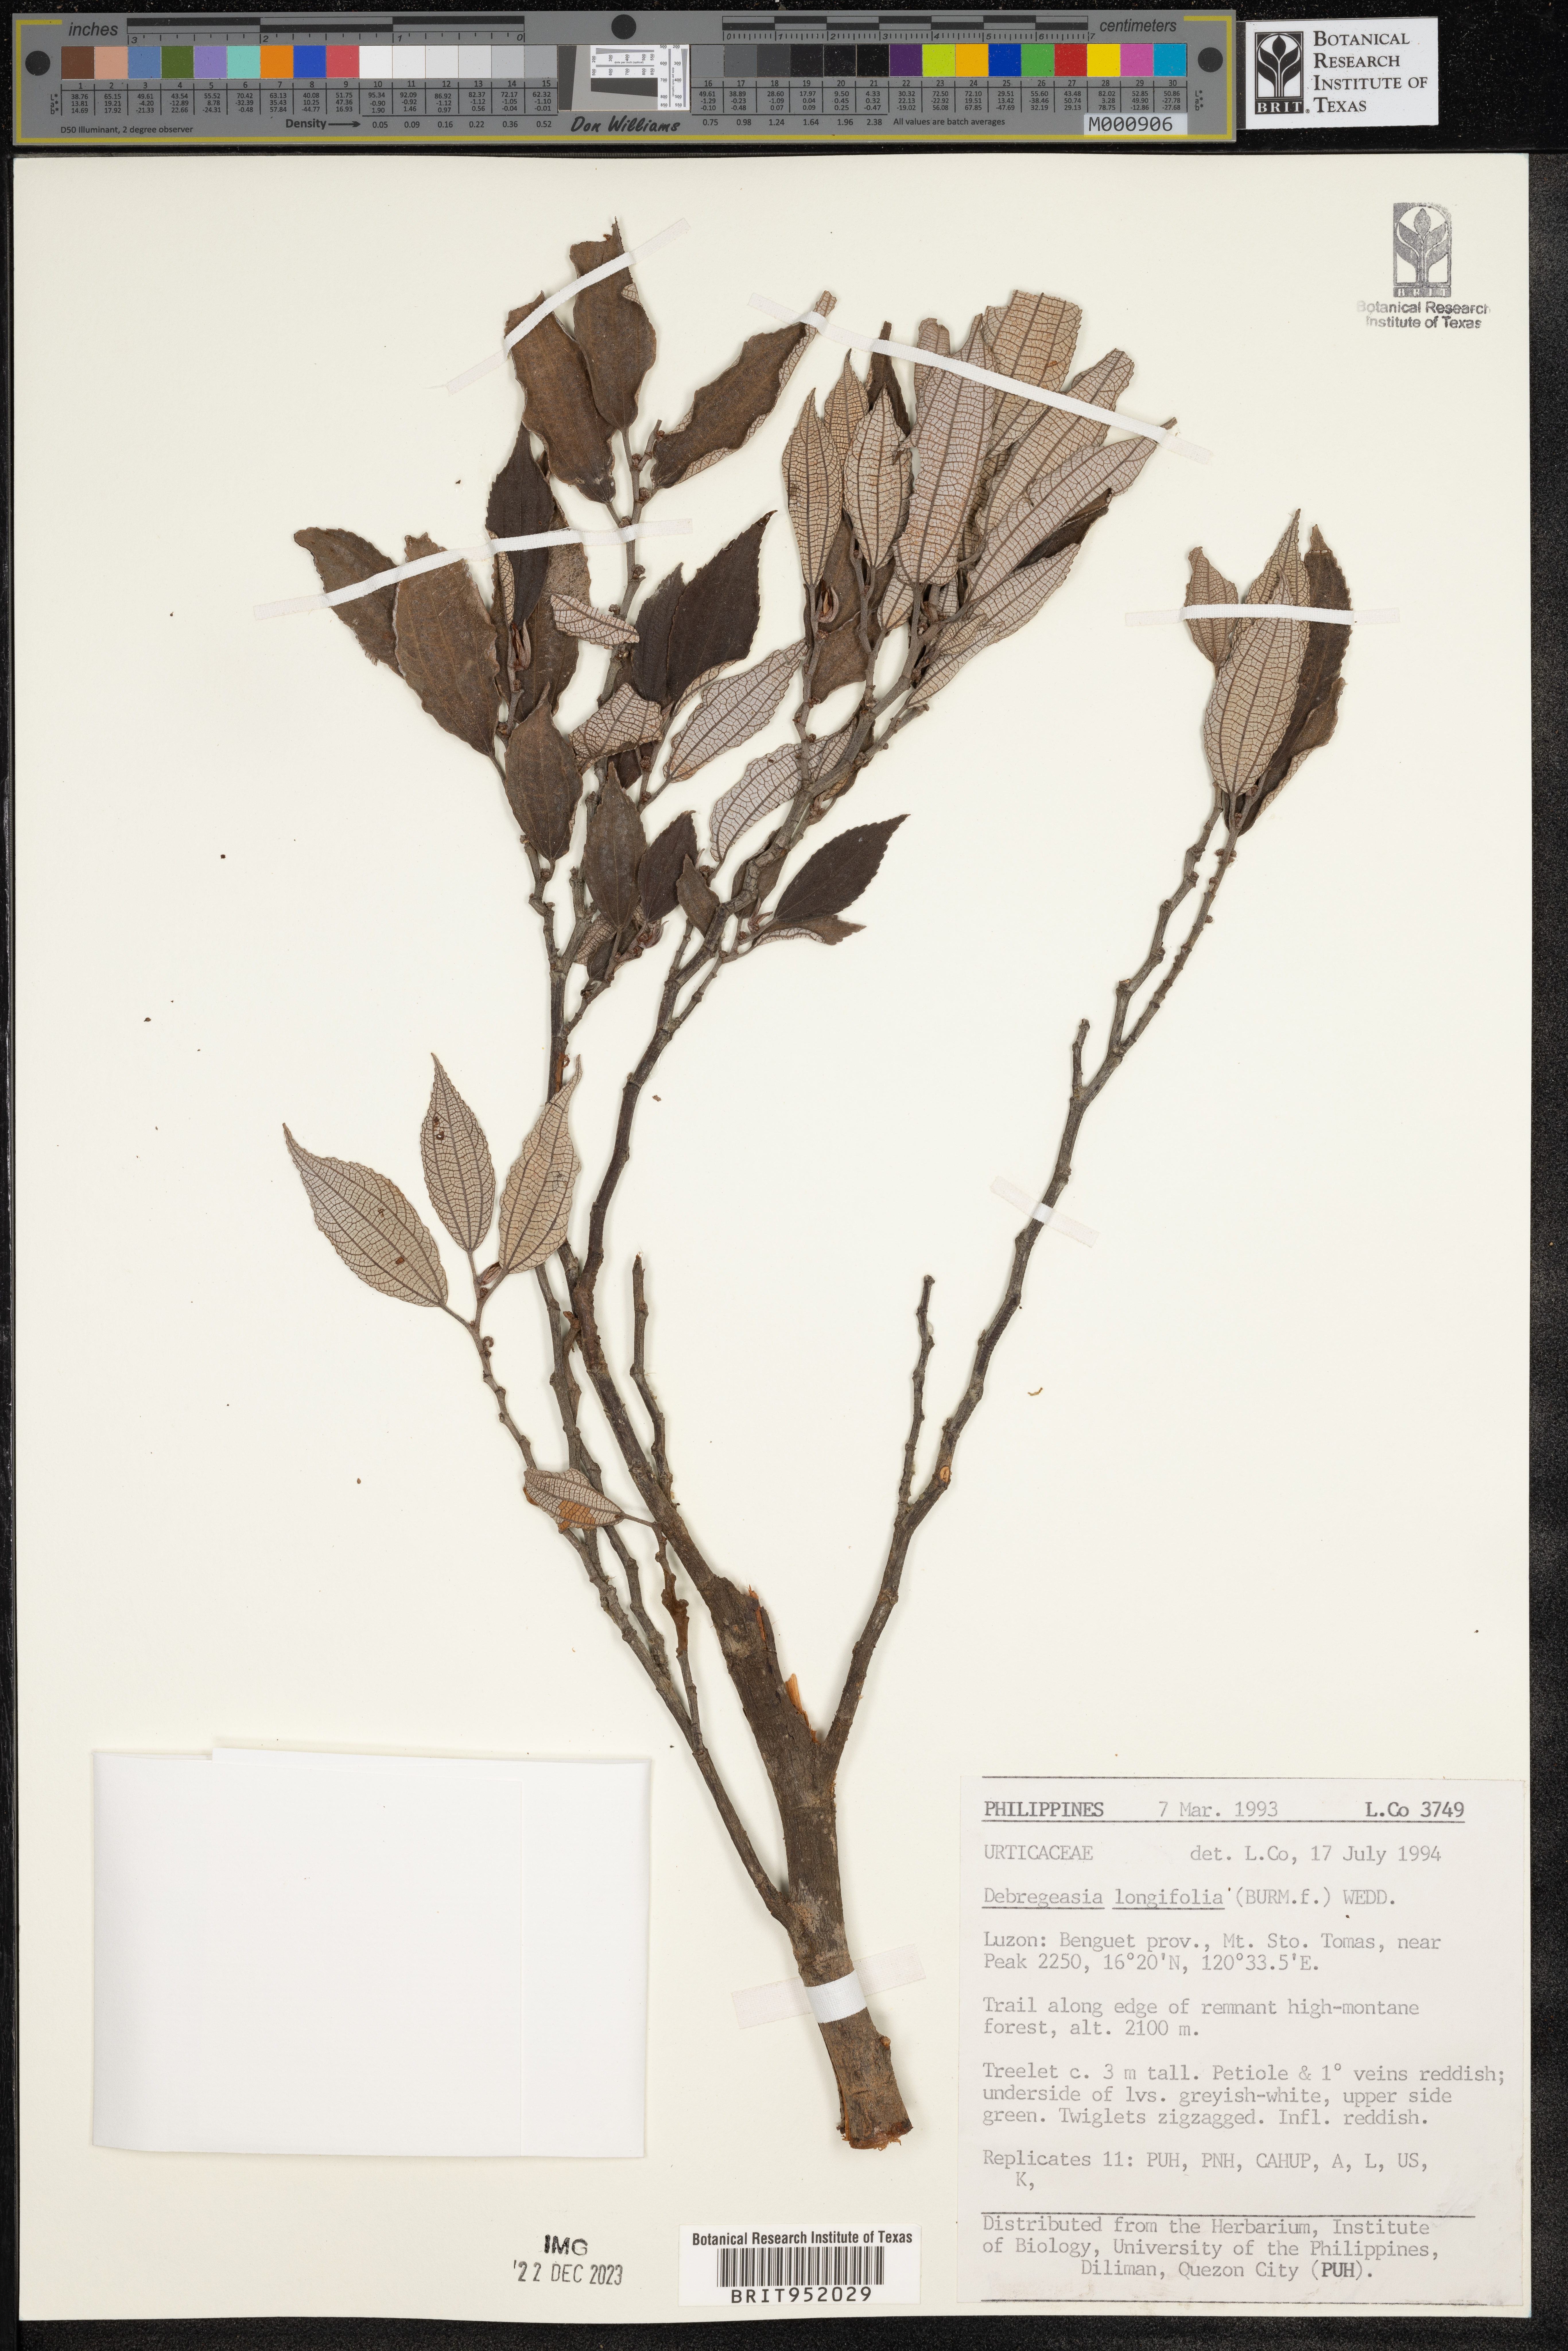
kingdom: Plantae
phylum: Tracheophyta
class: Magnoliopsida
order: Rosales
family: Urticaceae
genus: Debregeasia
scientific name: Debregeasia
